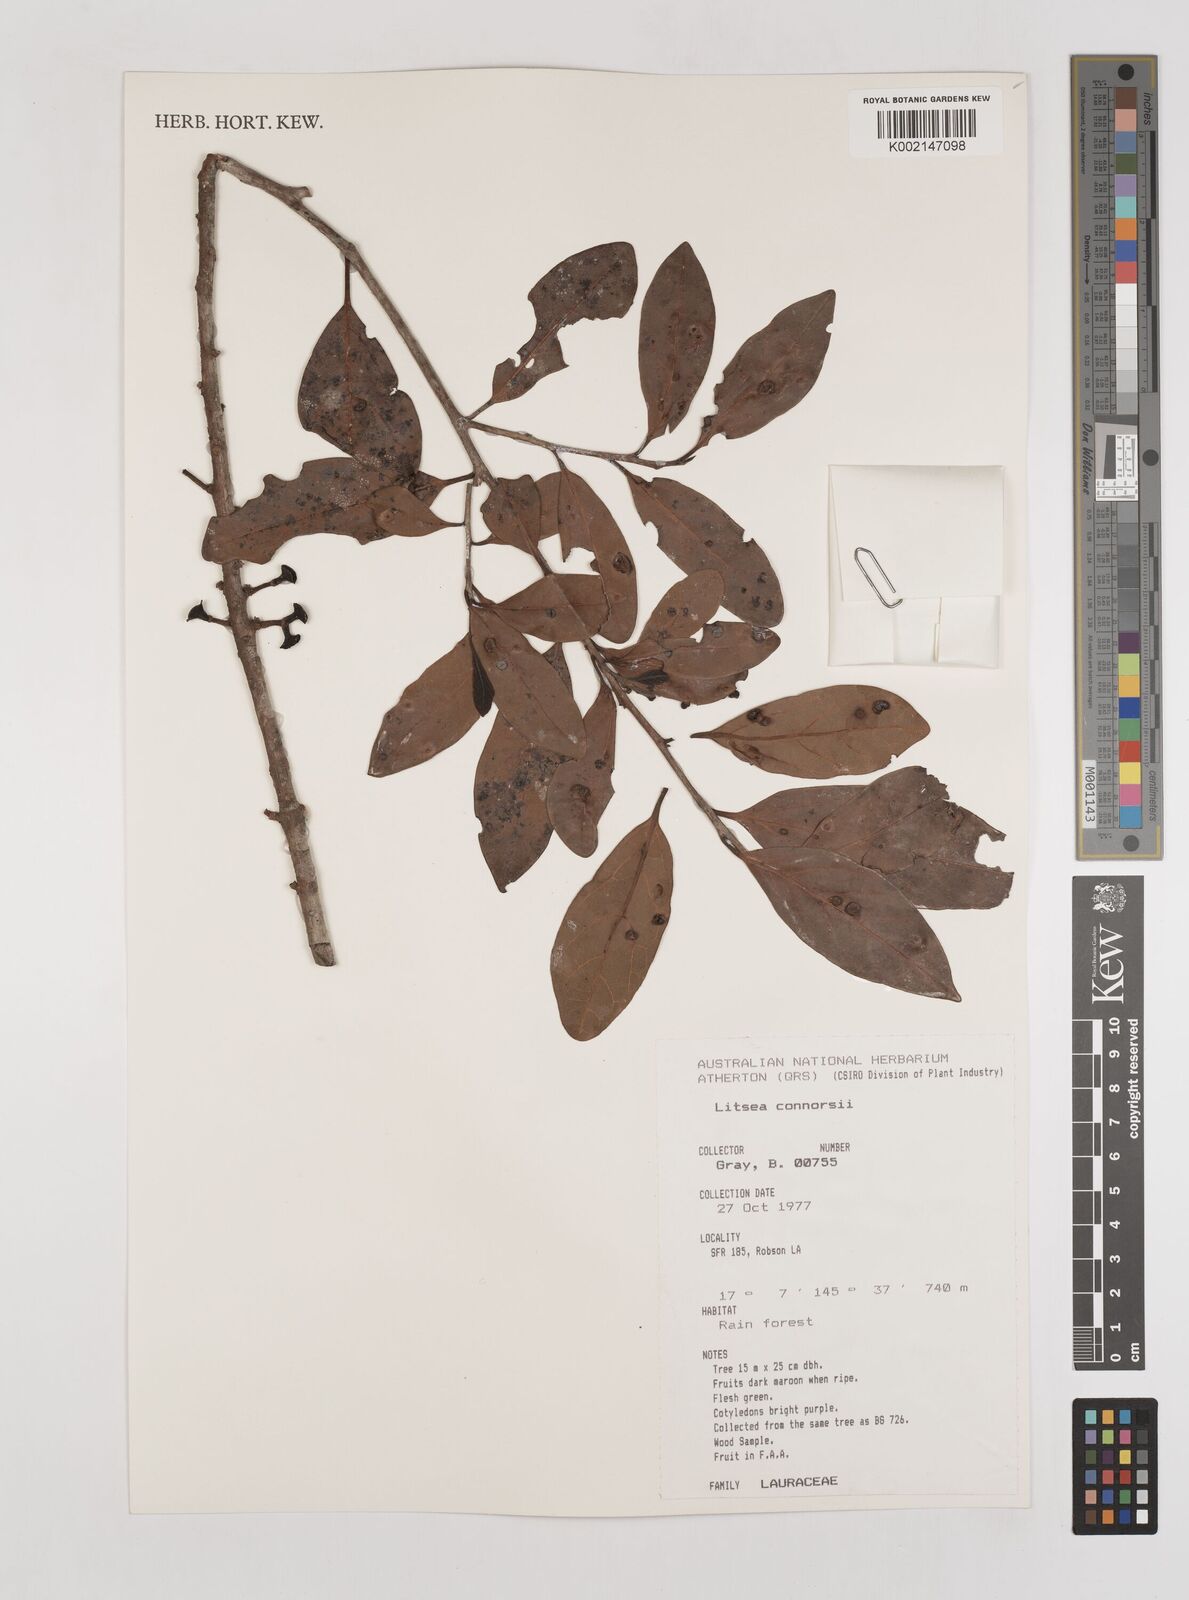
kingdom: Plantae
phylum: Tracheophyta
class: Magnoliopsida
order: Laurales
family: Lauraceae
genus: Litsea
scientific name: Litsea connorsii
